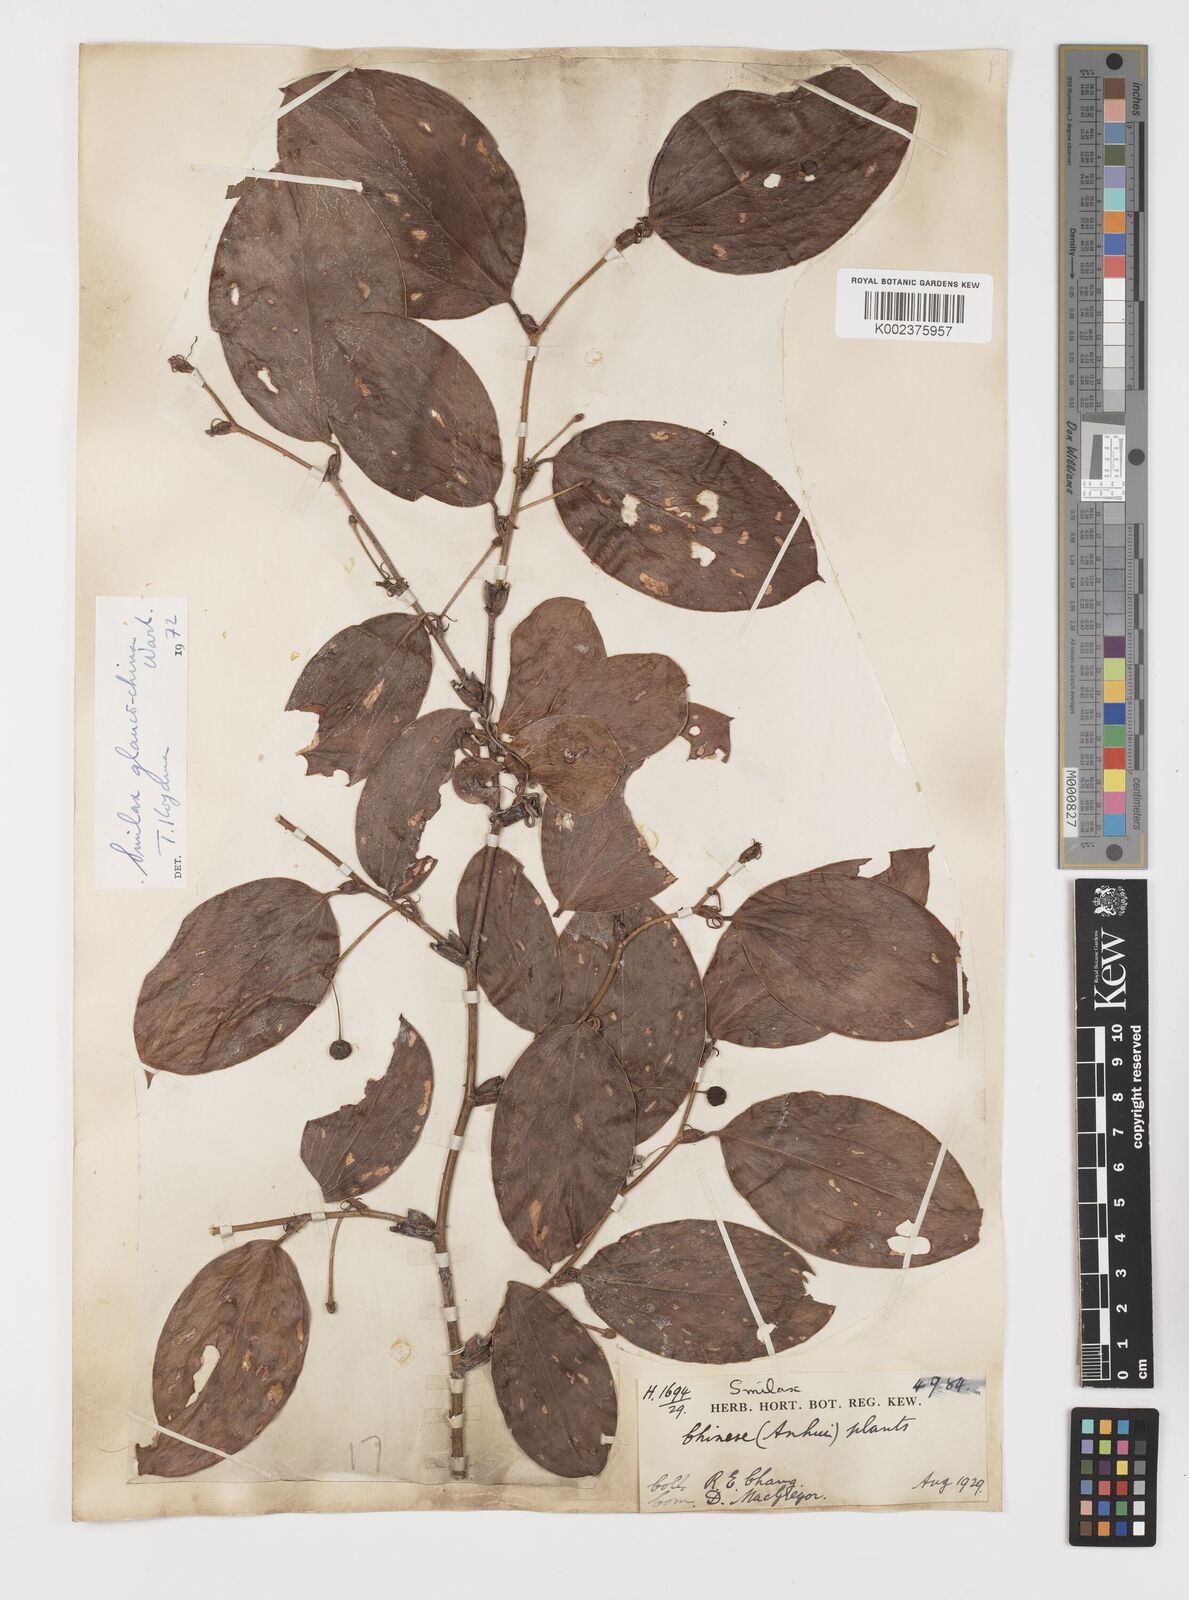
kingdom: Plantae
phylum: Tracheophyta
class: Liliopsida
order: Liliales
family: Smilacaceae
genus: Smilax
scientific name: Smilax glaucochina
